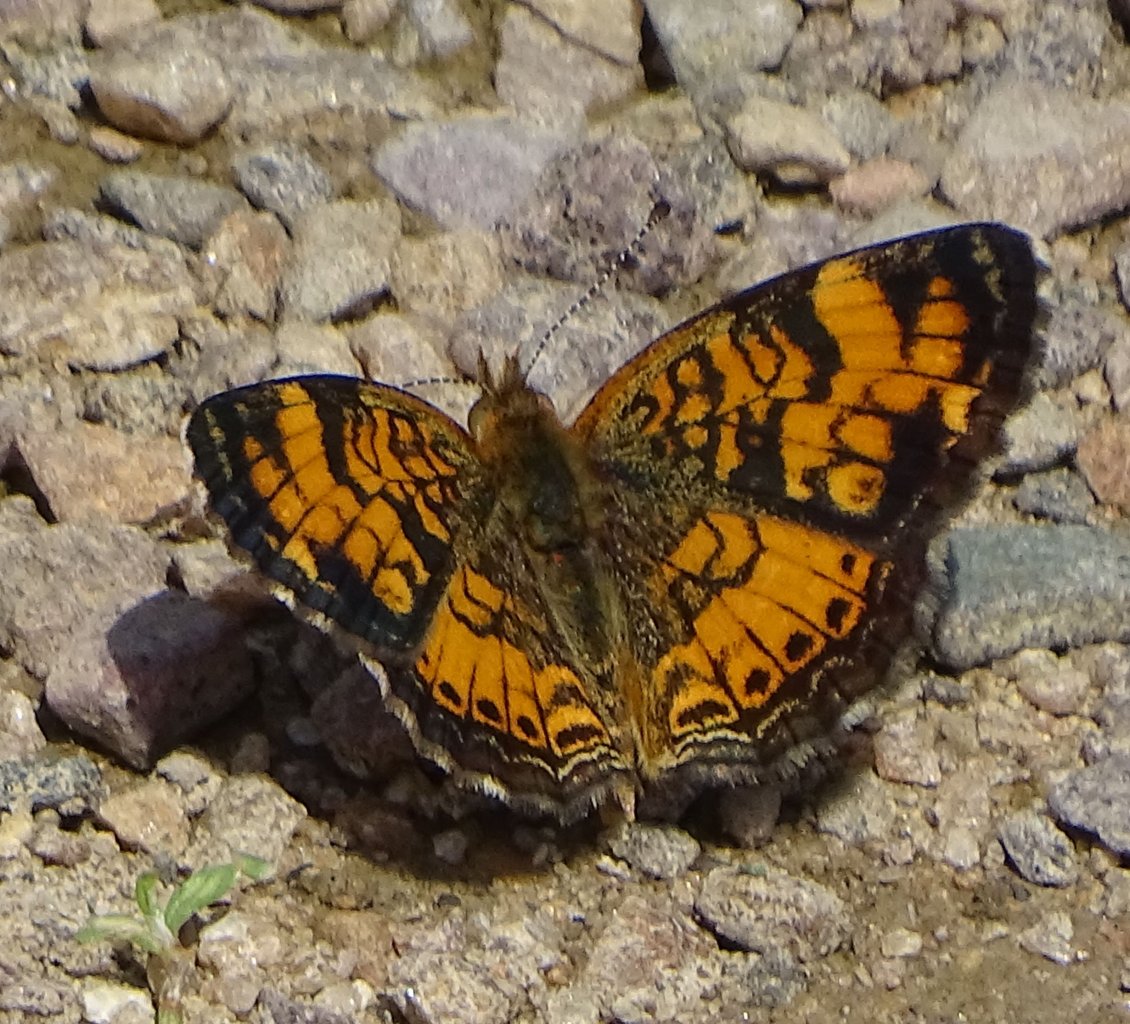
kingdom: Animalia
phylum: Arthropoda
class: Insecta
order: Lepidoptera
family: Nymphalidae
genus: Phyciodes
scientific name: Phyciodes tharos
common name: Northern Crescent
